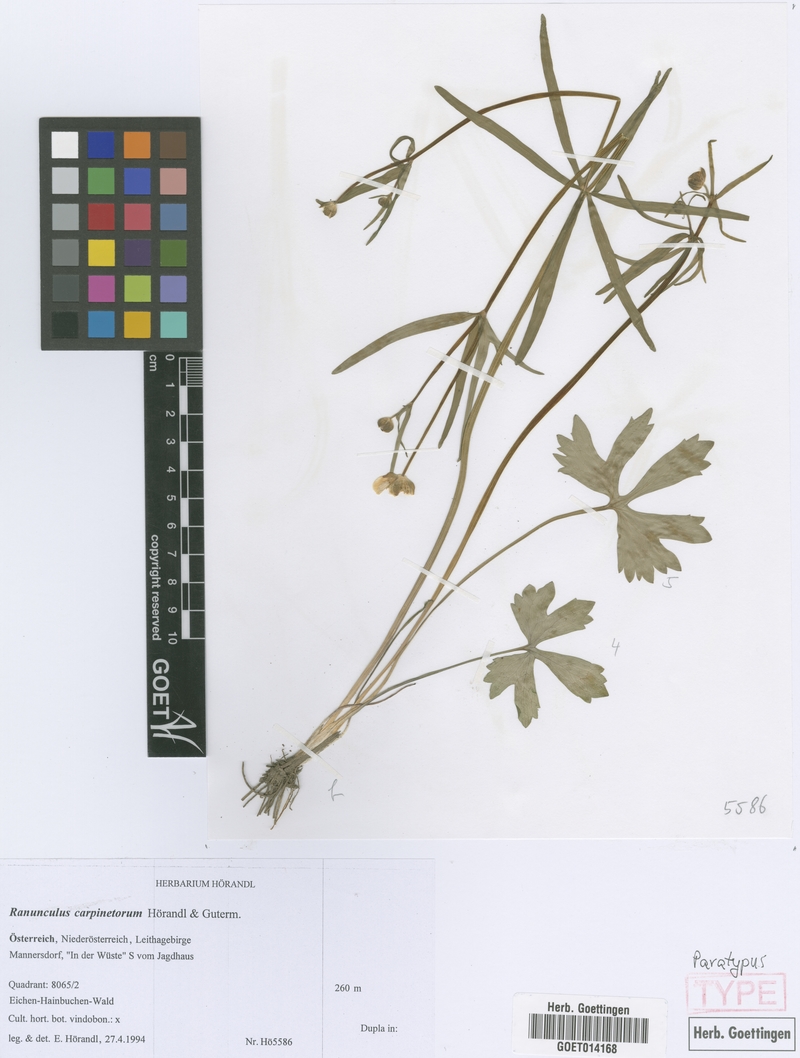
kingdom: Plantae
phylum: Tracheophyta
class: Magnoliopsida
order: Ranunculales
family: Ranunculaceae
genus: Ranunculus
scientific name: Ranunculus carpinetorum
